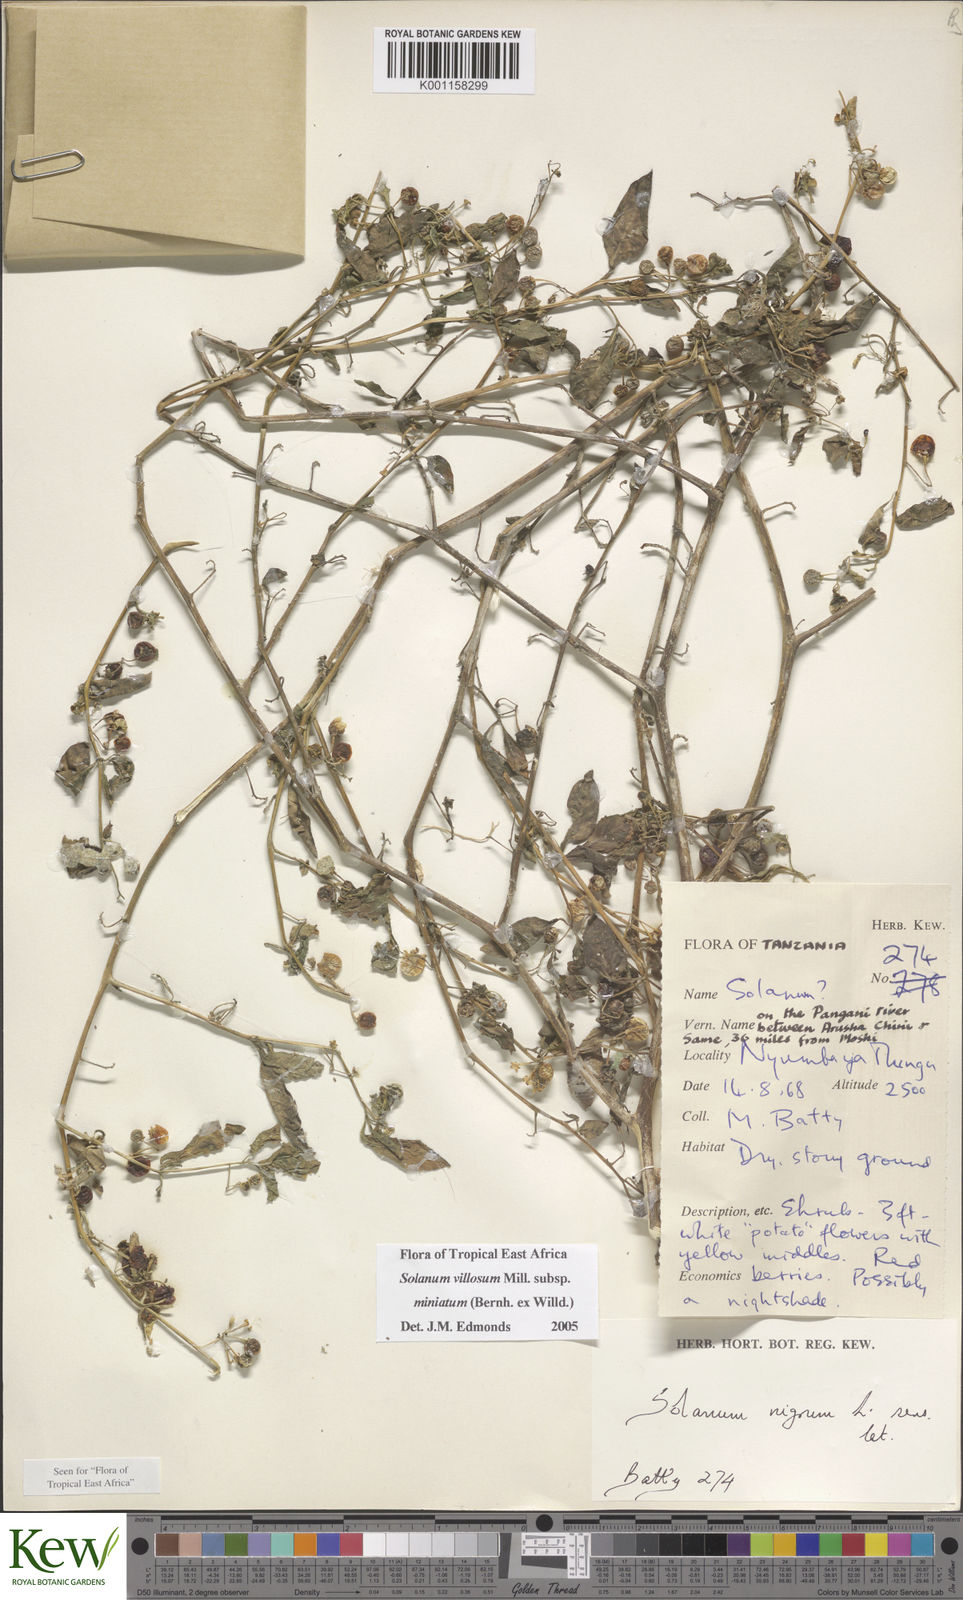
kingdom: Plantae
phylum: Tracheophyta
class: Magnoliopsida
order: Solanales
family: Solanaceae
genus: Solanum
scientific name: Solanum villosum
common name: Red nightshade
